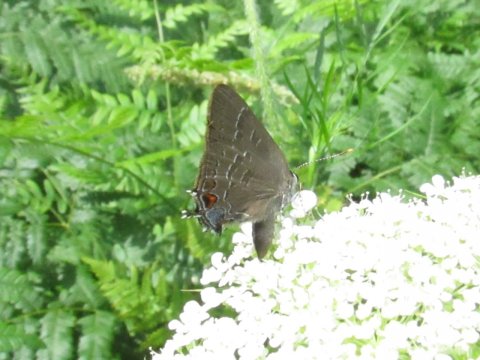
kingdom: Animalia
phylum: Arthropoda
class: Insecta
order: Lepidoptera
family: Lycaenidae
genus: Satyrium
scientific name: Satyrium calanus
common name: Banded Hairstreak
